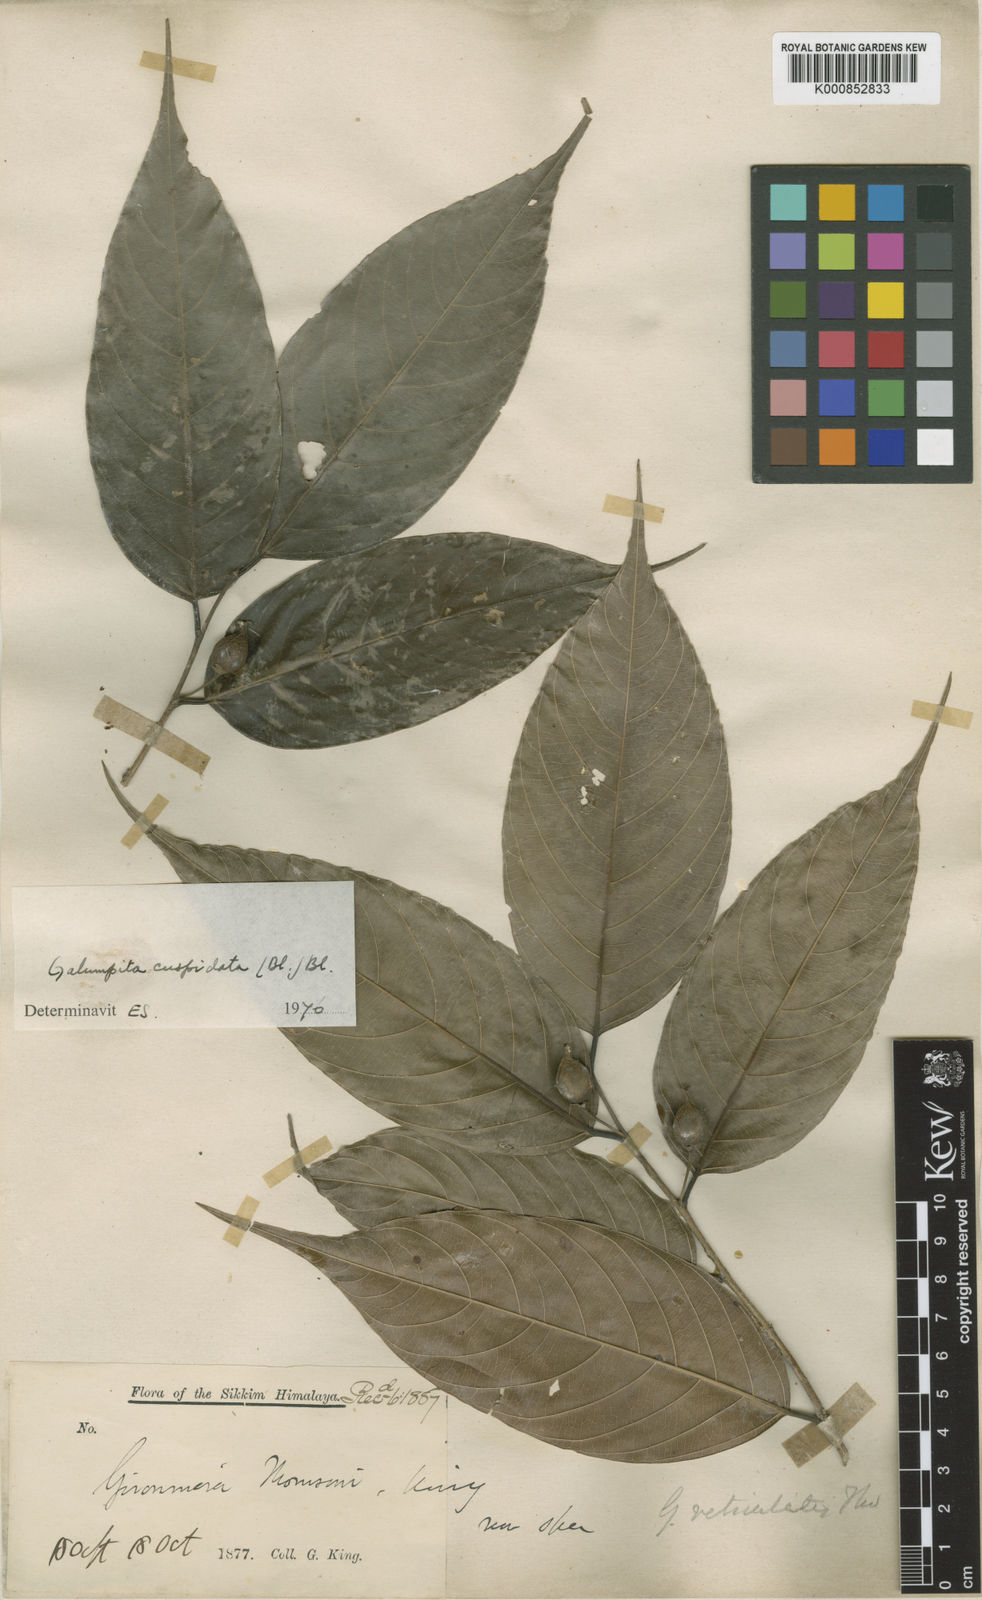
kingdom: Plantae
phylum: Tracheophyta
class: Magnoliopsida
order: Rosales
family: Cannabaceae
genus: Aphananthe
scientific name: Aphananthe cuspidata
